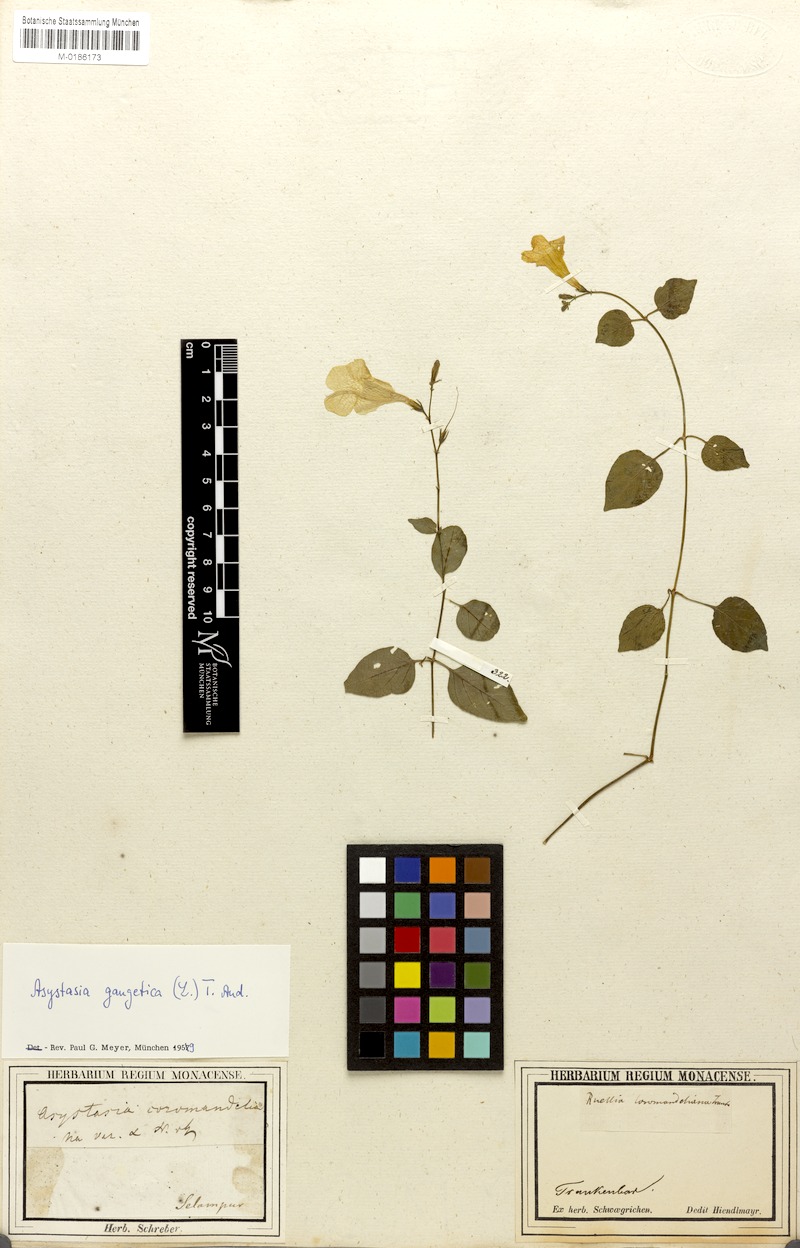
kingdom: Plantae
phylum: Tracheophyta
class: Magnoliopsida
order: Lamiales
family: Acanthaceae
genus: Asystasia
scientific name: Asystasia gangetica
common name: Chinese violet
